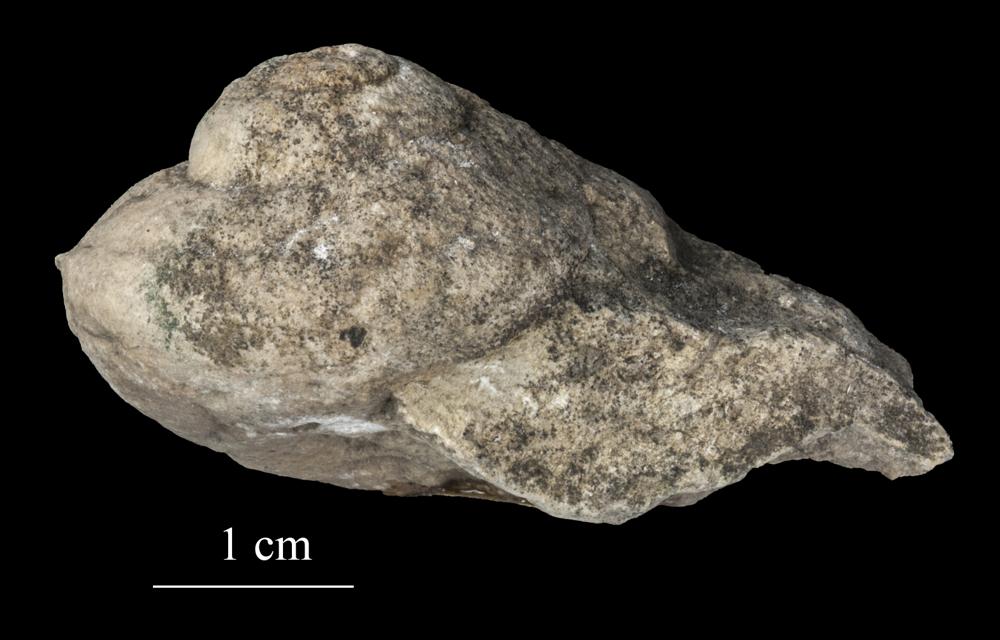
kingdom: Animalia
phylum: Mollusca
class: Gastropoda
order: Neogastropoda
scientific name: Neogastropoda
